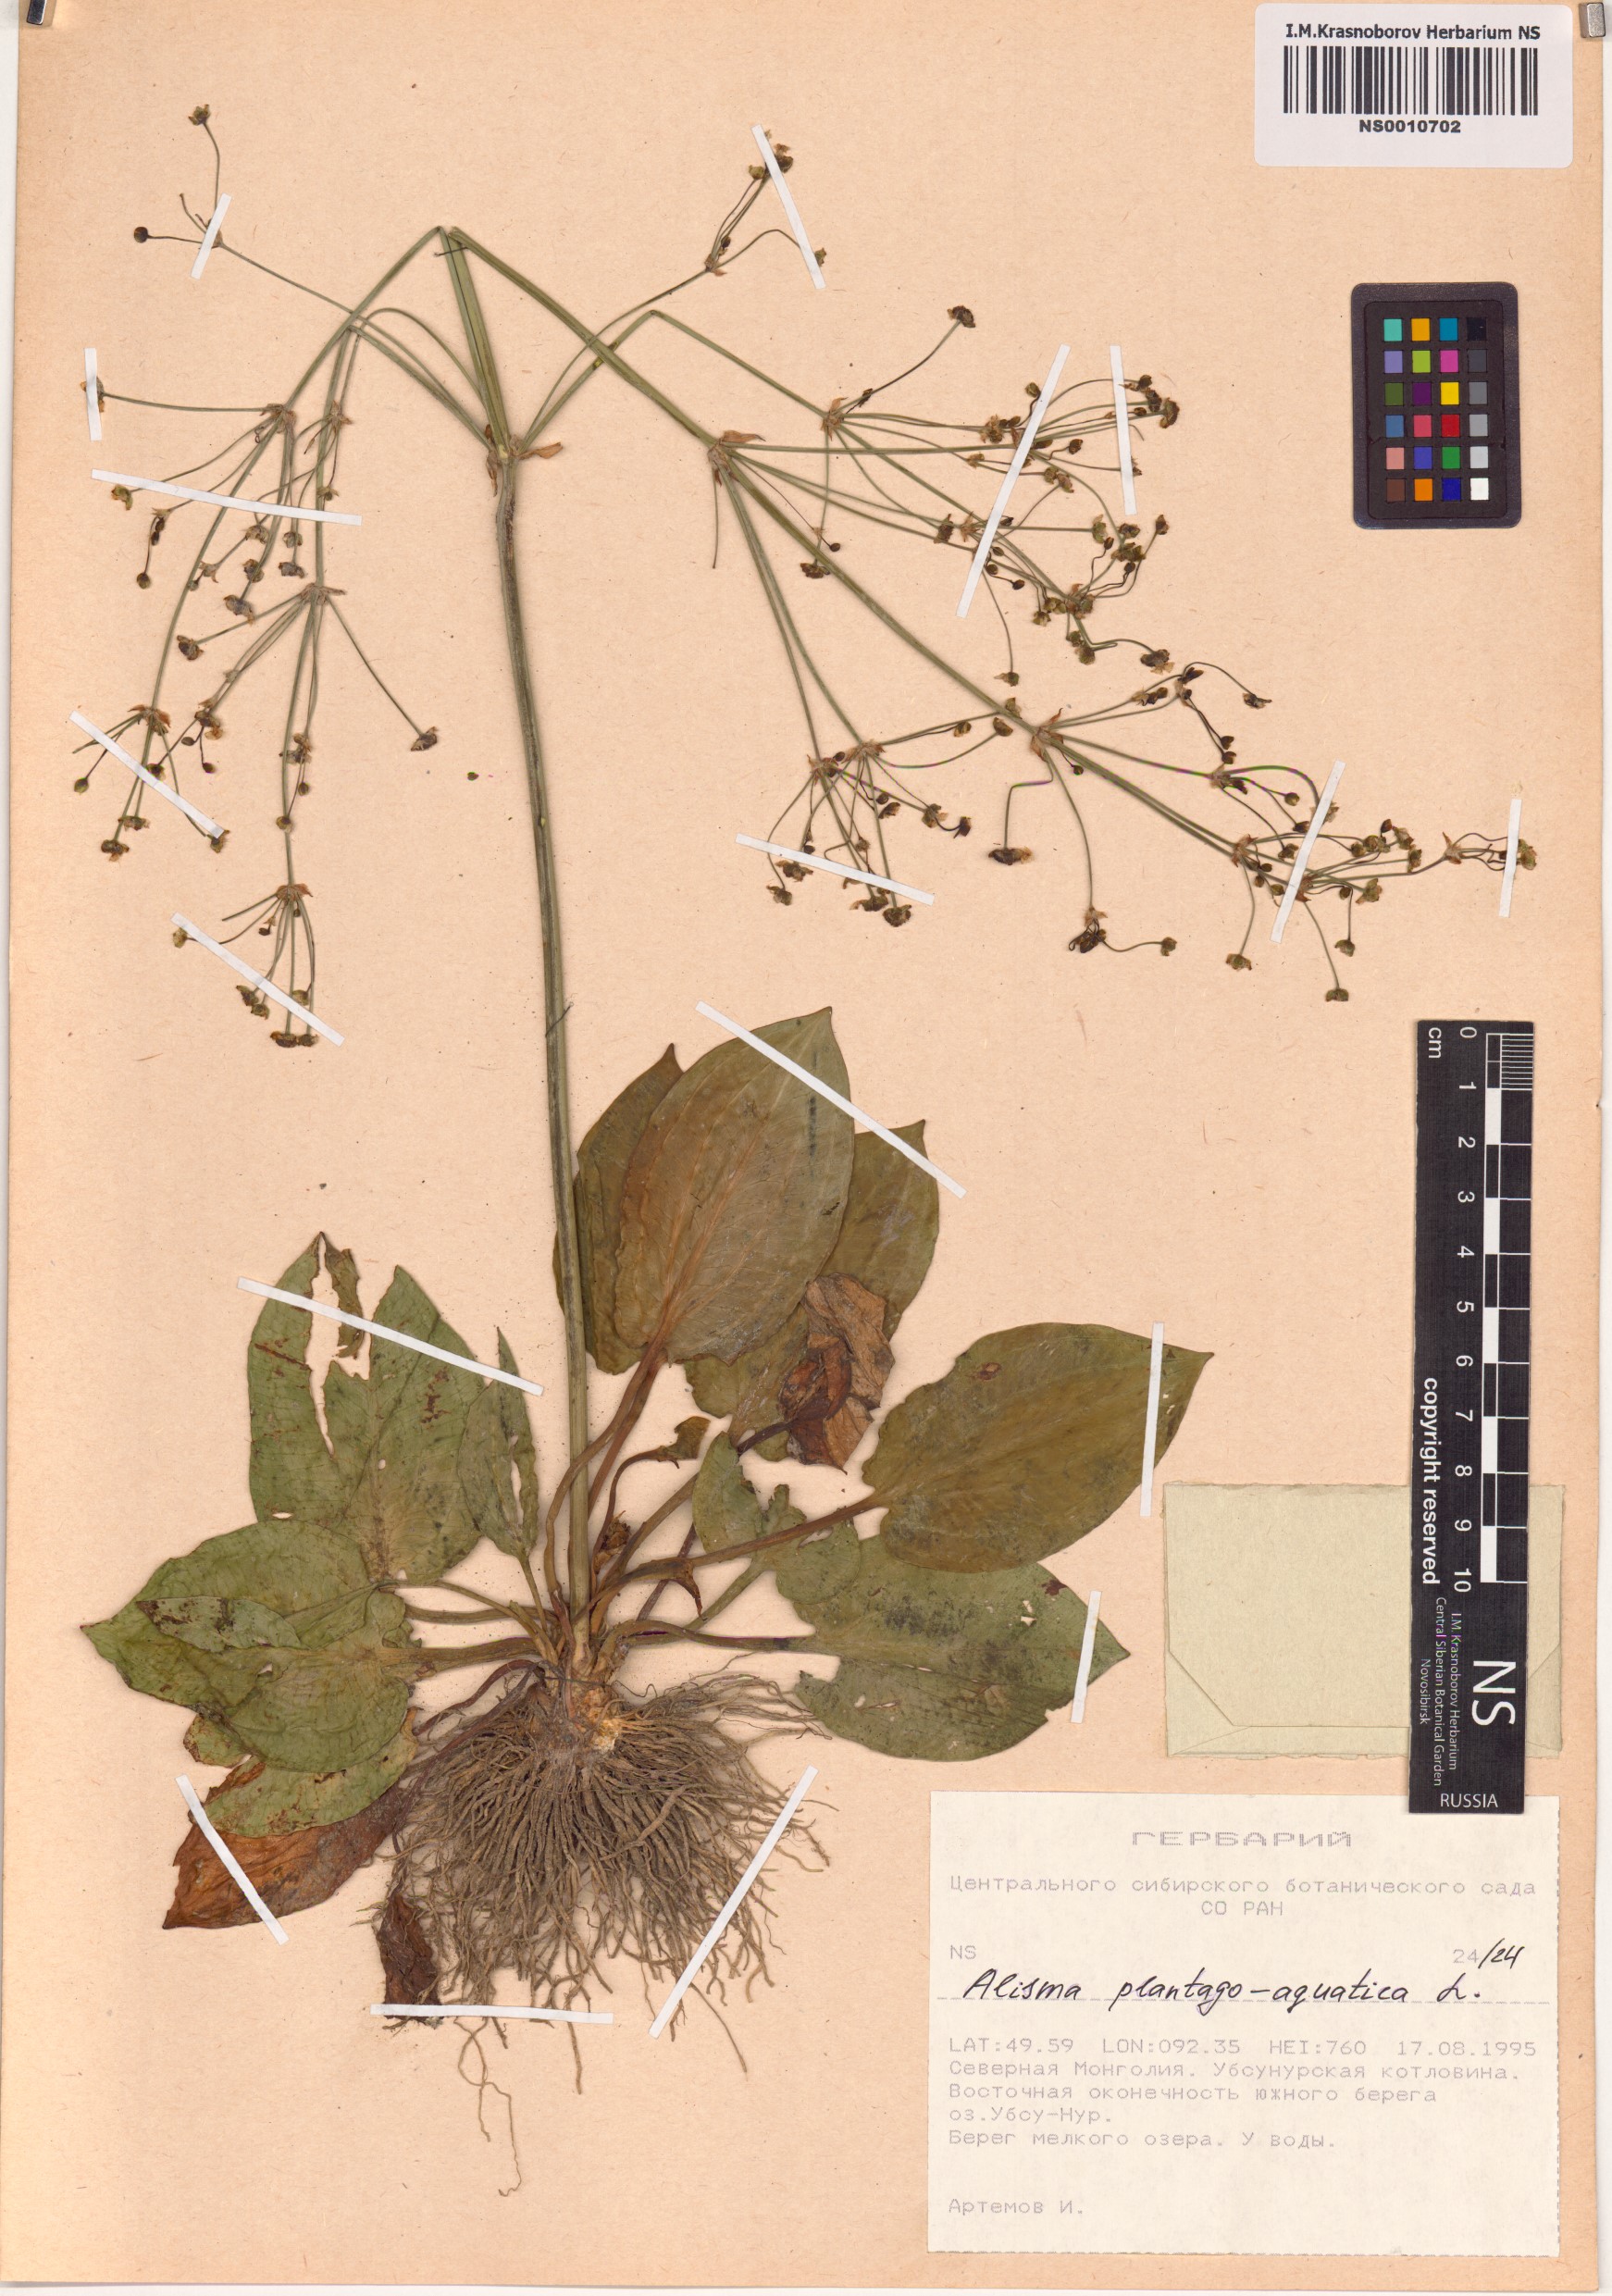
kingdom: Plantae
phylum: Tracheophyta
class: Liliopsida
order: Alismatales
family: Alismataceae
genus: Alisma
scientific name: Alisma plantago-aquatica
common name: Water-plantain
